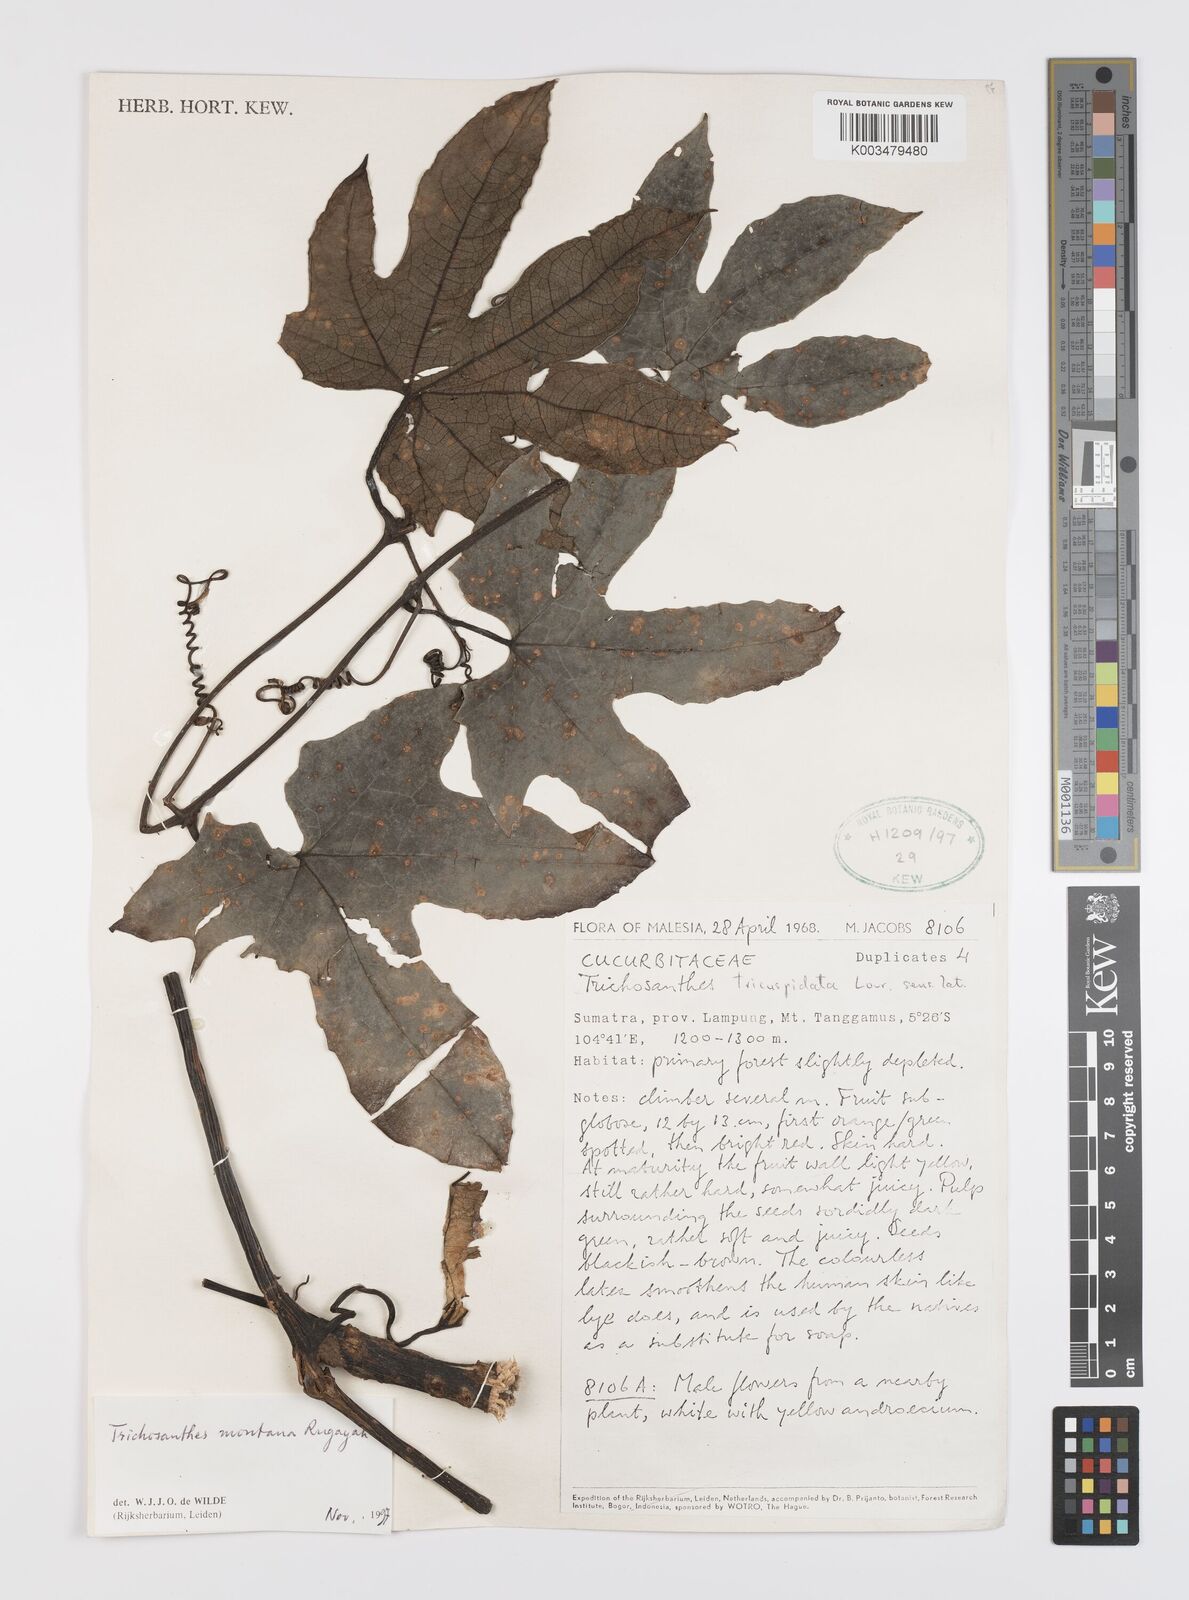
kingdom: Plantae
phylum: Tracheophyta
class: Magnoliopsida
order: Cucurbitales
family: Cucurbitaceae
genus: Trichosanthes
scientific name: Trichosanthes montana
